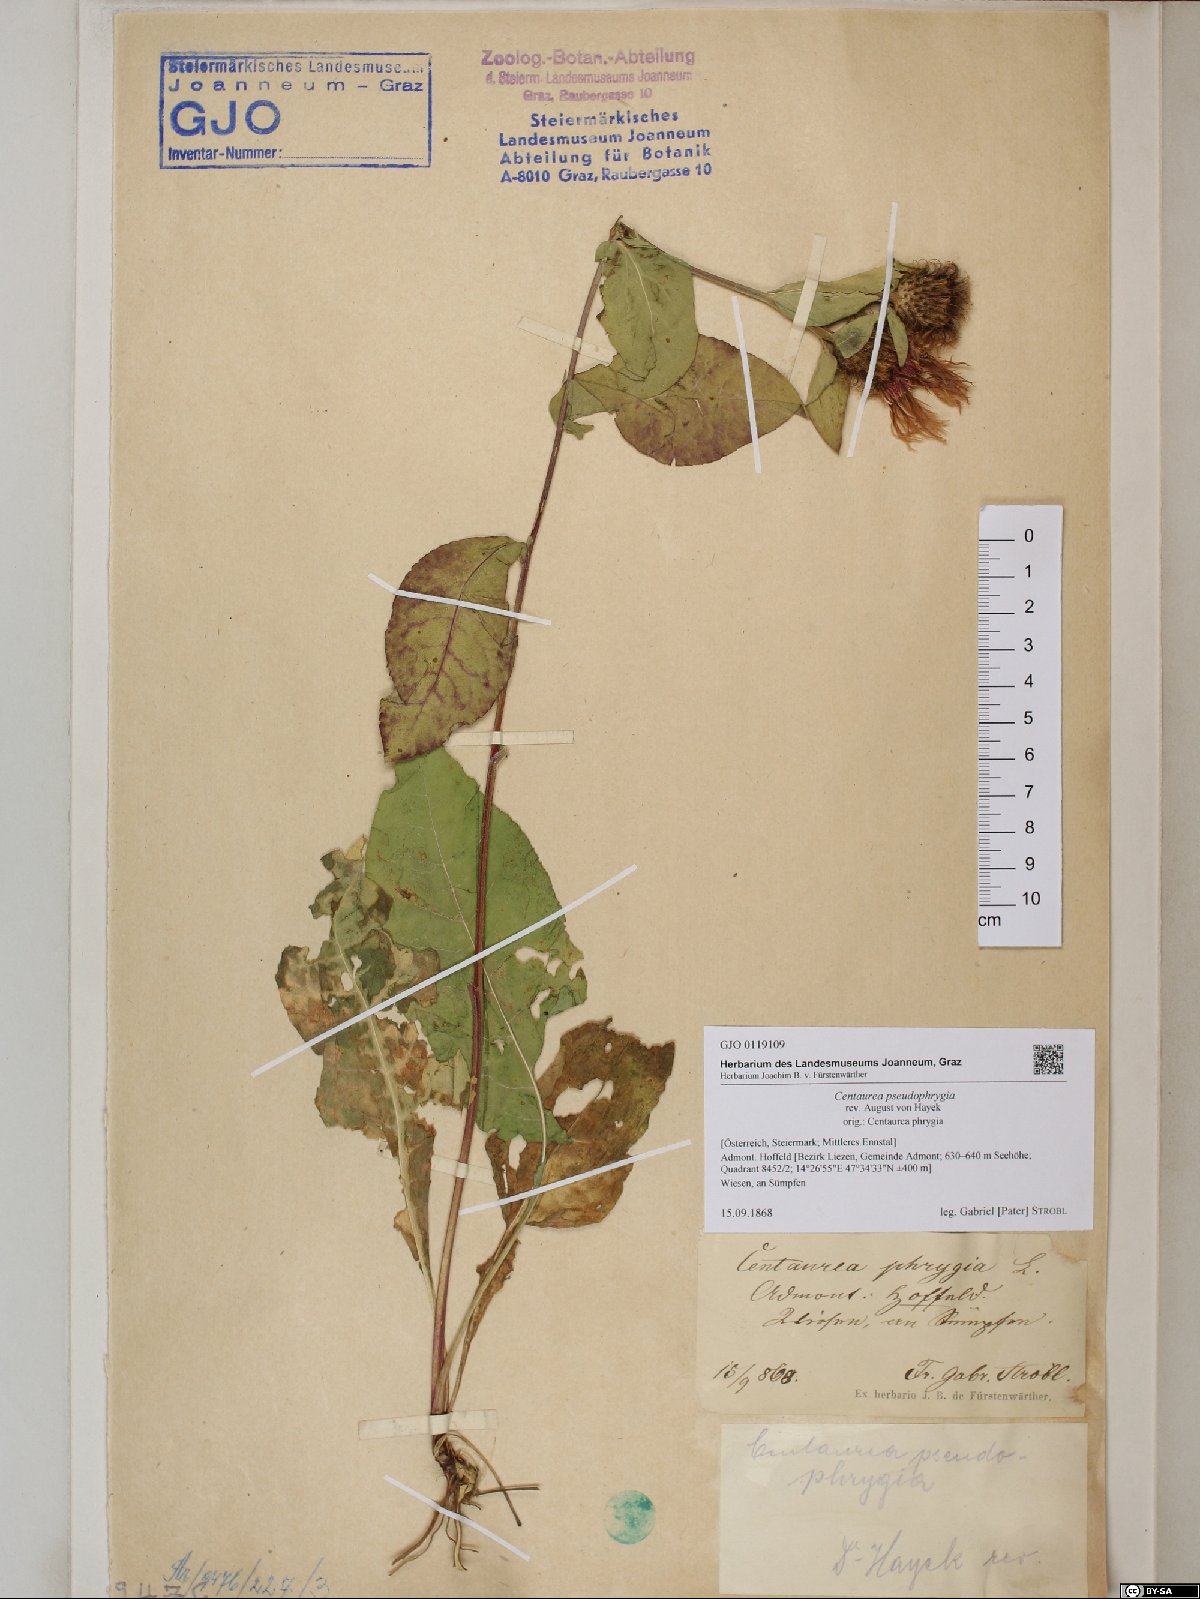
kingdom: Plantae
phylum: Tracheophyta
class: Magnoliopsida
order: Asterales
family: Asteraceae
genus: Centaurea
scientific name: Centaurea pseudophrygia
